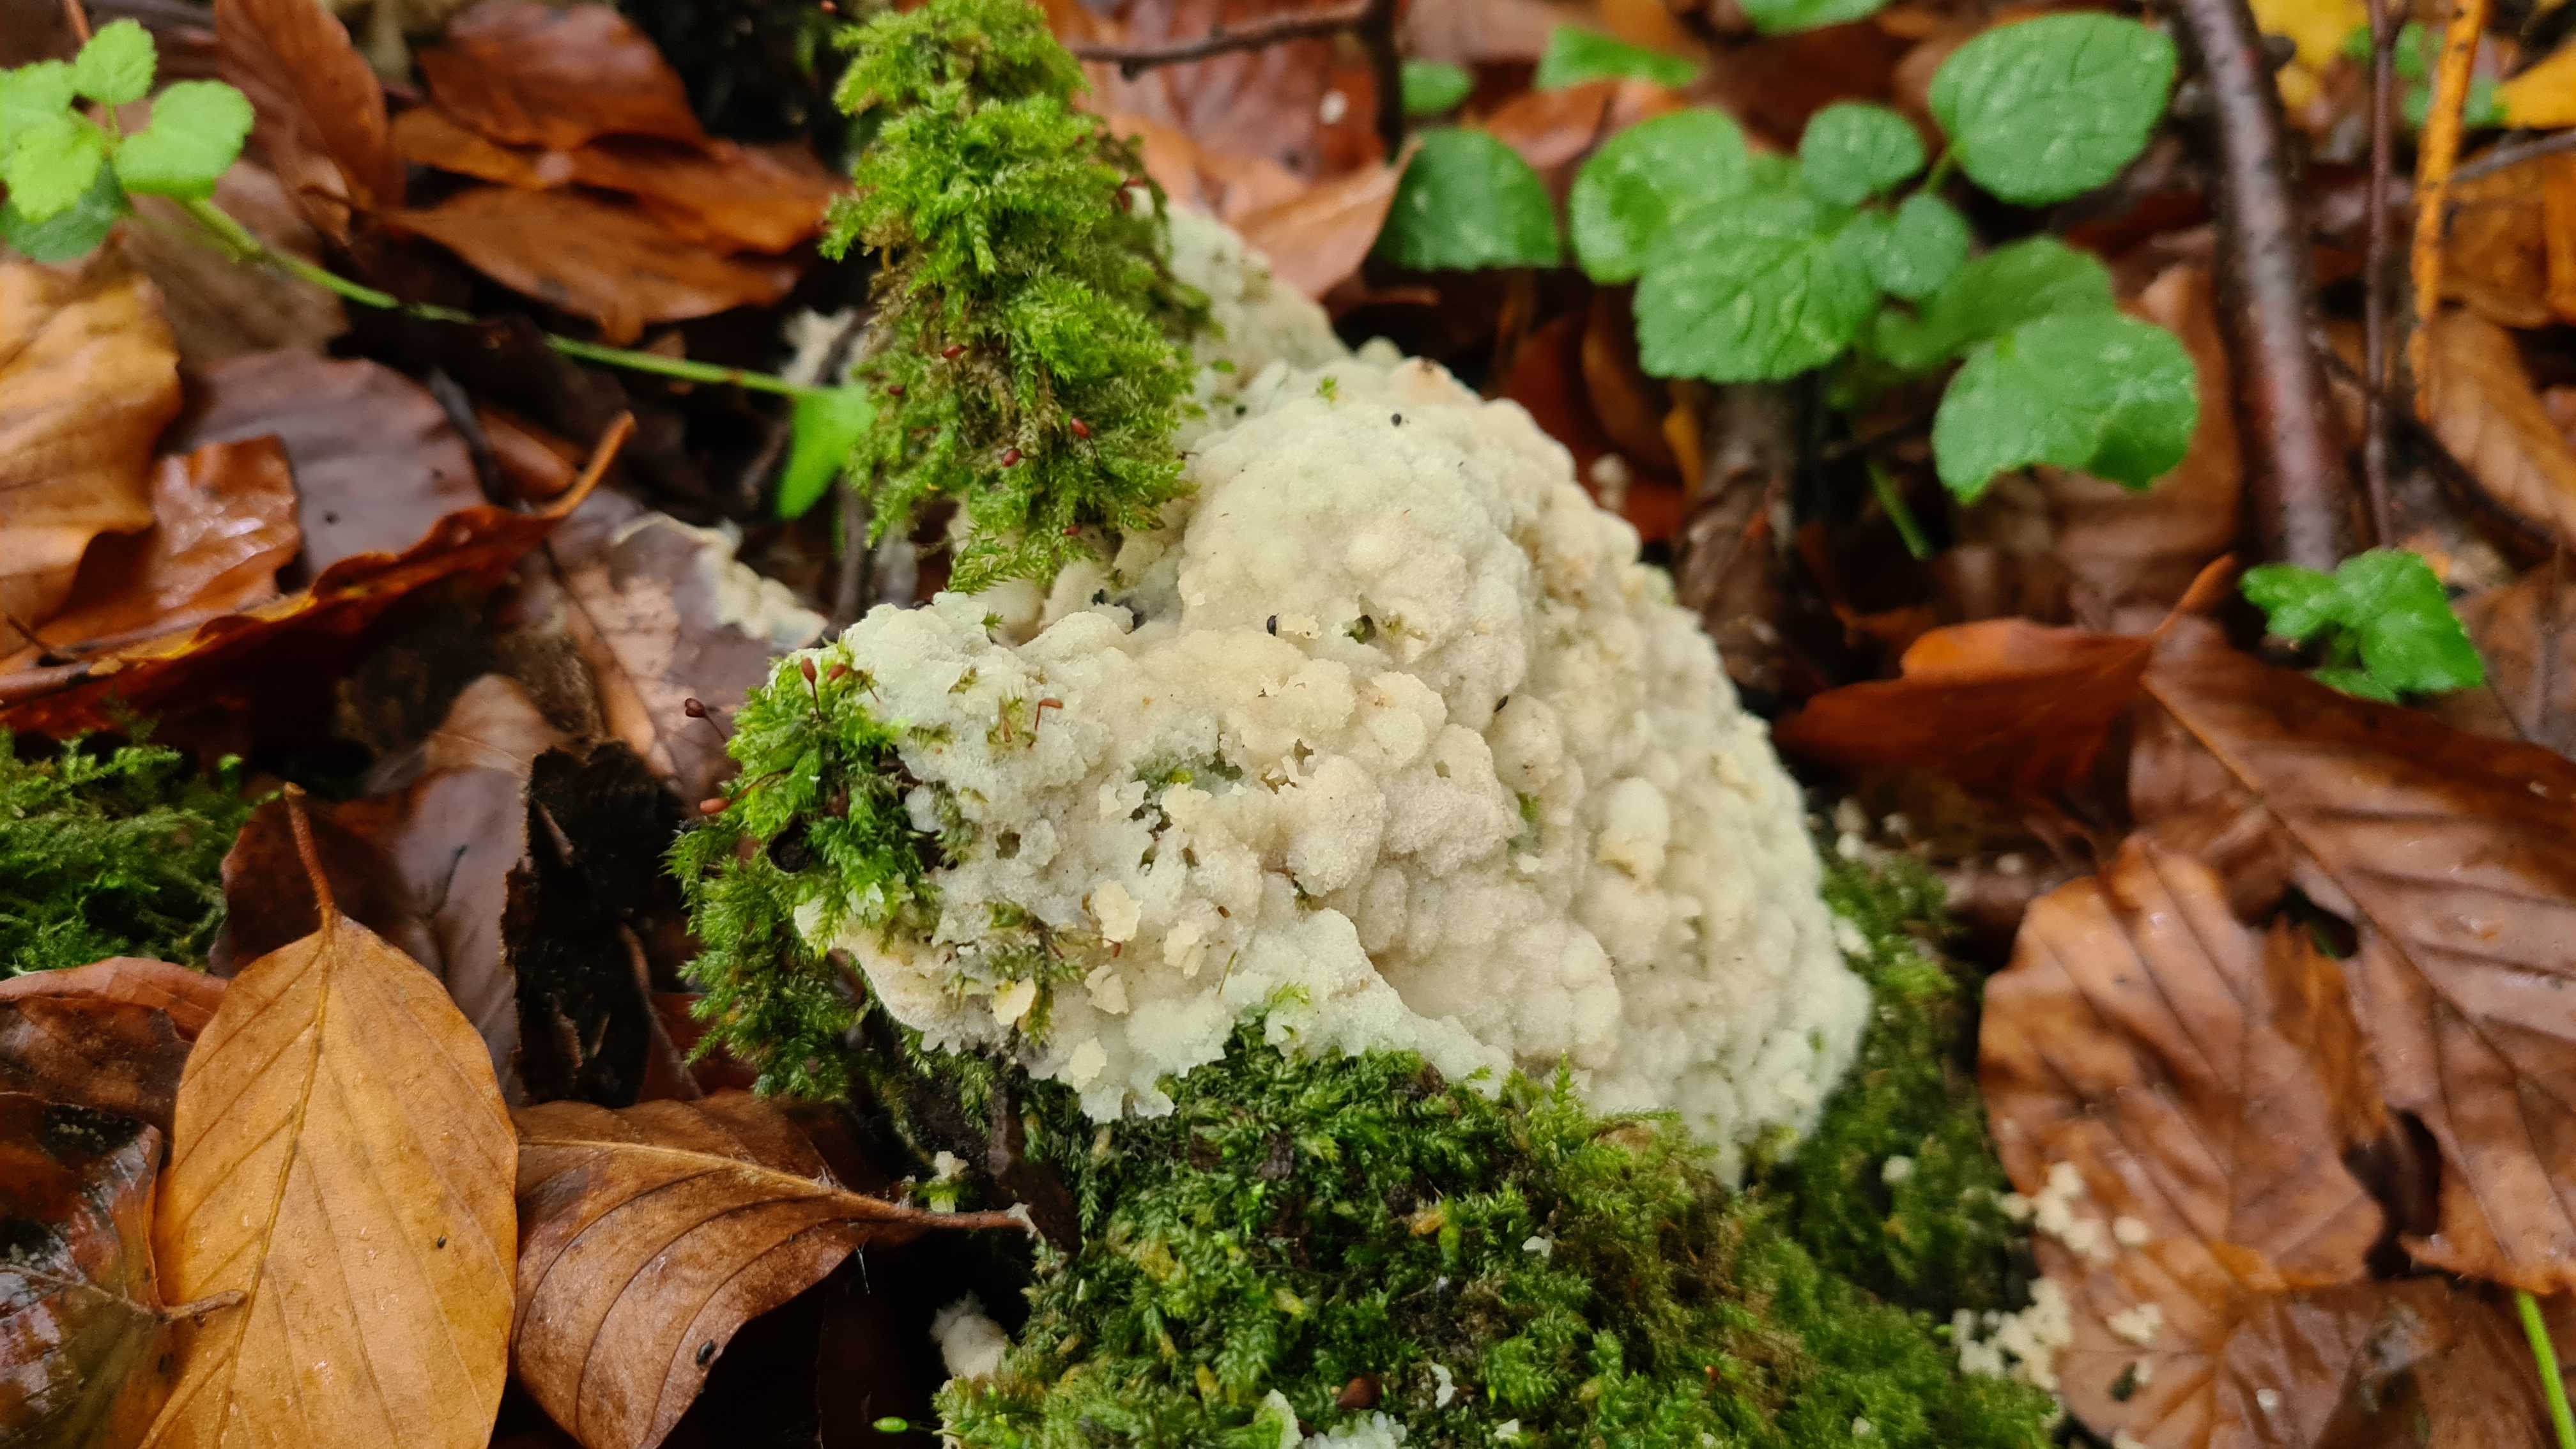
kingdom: Fungi
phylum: Basidiomycota
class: Agaricomycetes
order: Polyporales
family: Meruliaceae
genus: Physisporinus
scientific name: Physisporinus vitreus
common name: mastesvamp
